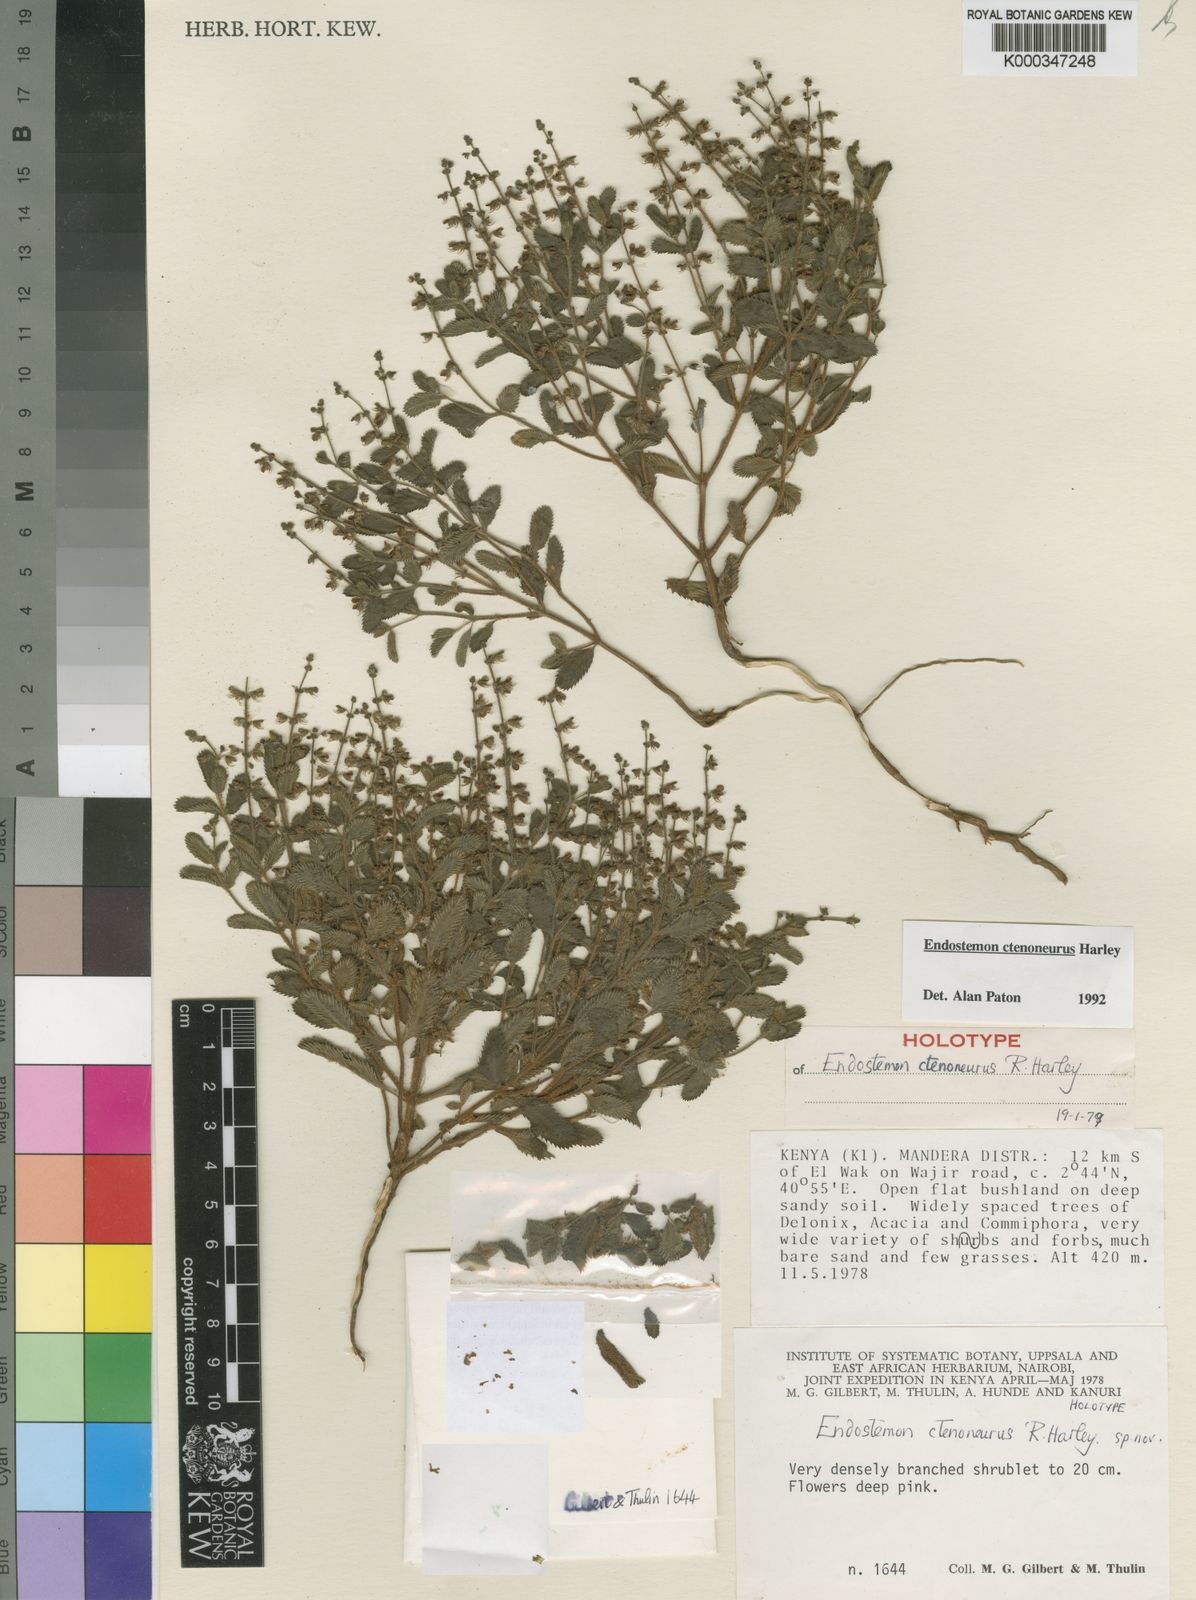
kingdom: Plantae
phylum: Tracheophyta
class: Magnoliopsida
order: Lamiales
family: Lamiaceae
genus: Endostemon
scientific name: Endostemon ctenoneurus
